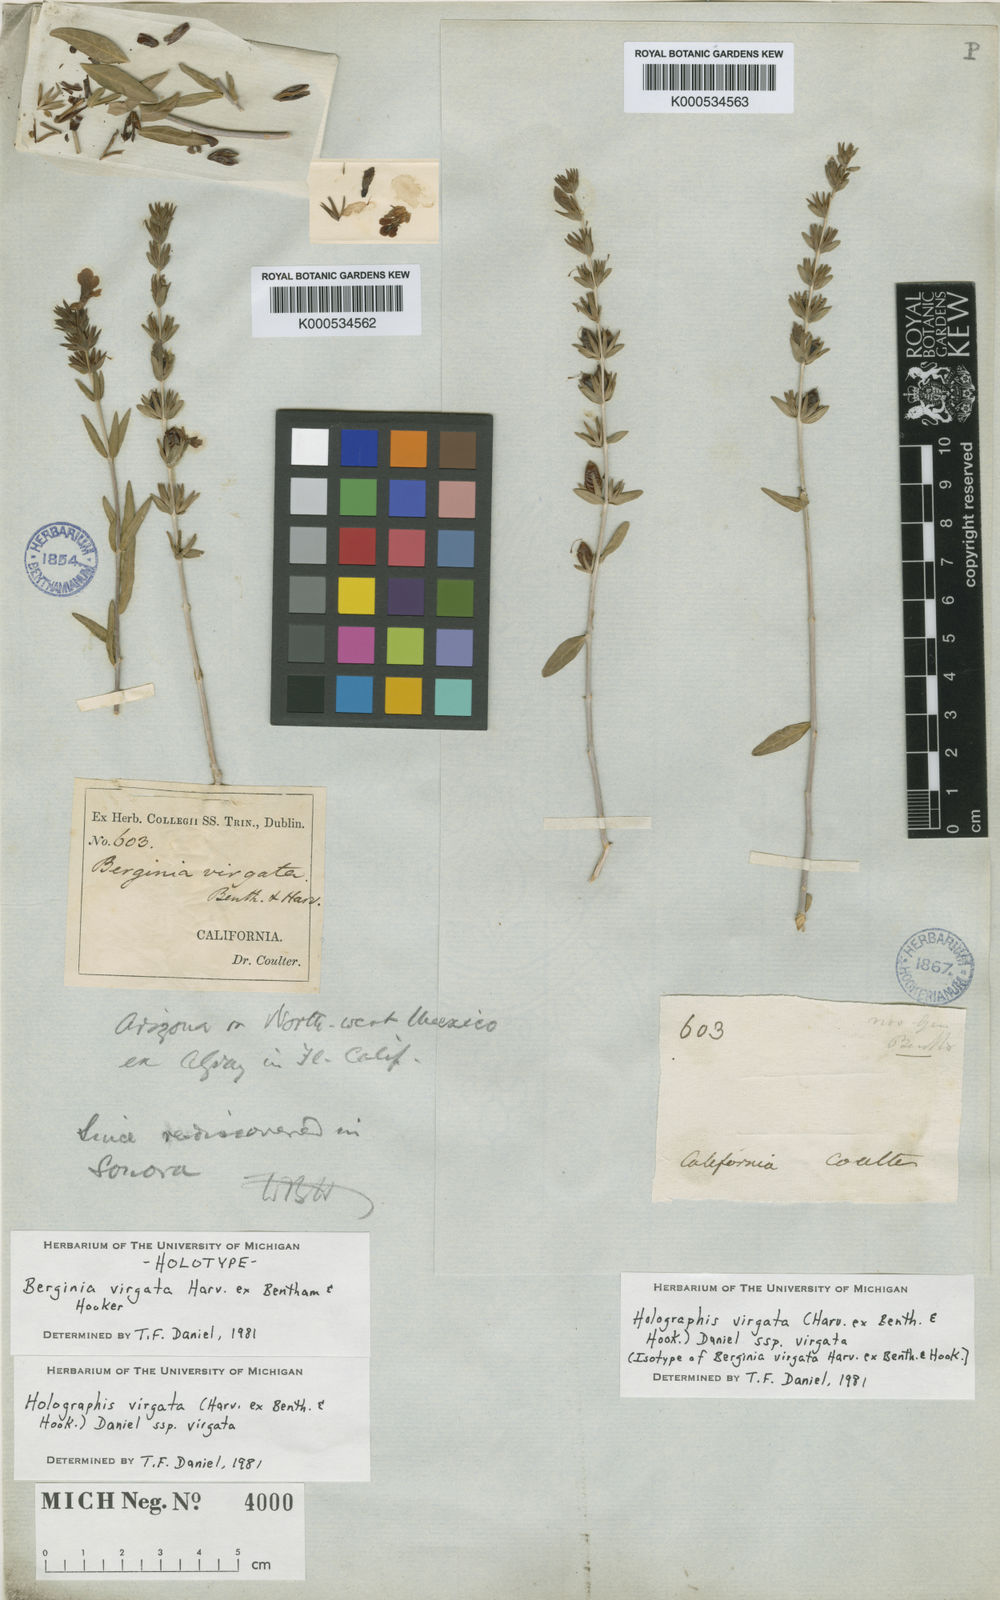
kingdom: Plantae
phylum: Tracheophyta
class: Magnoliopsida
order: Lamiales
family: Acanthaceae
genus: Holographis
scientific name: Holographis virgata
